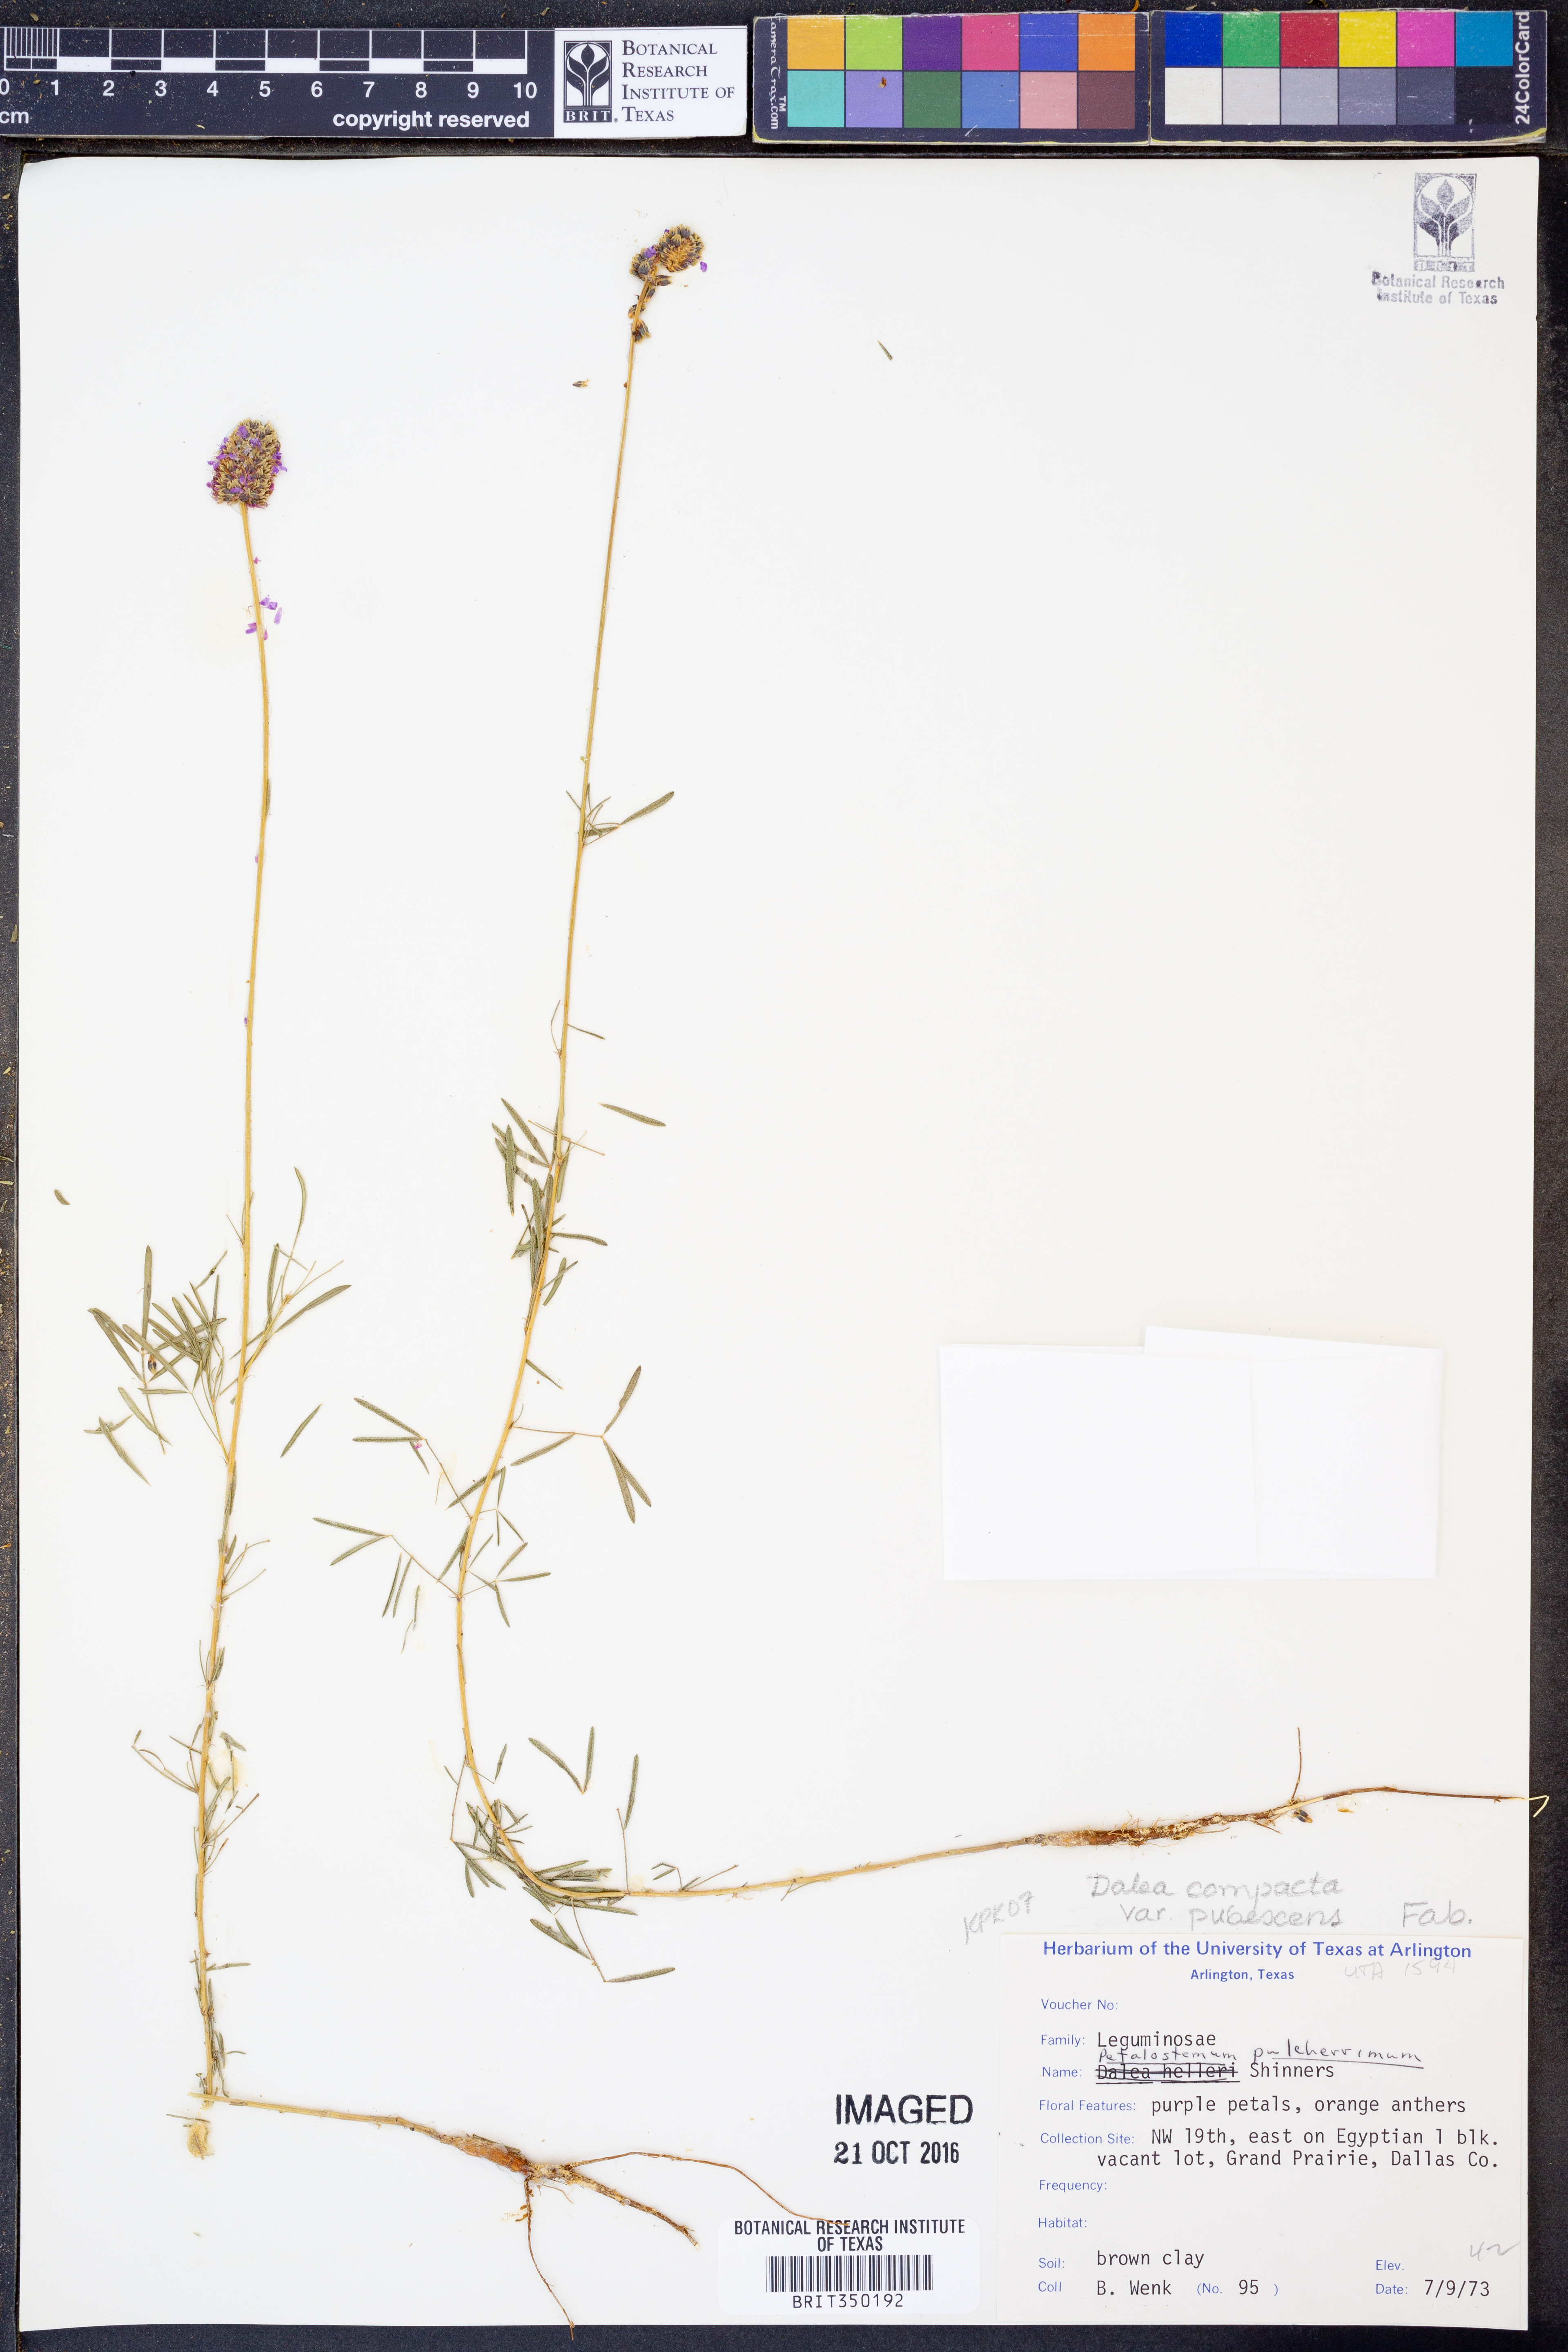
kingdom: Plantae
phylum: Tracheophyta
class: Magnoliopsida
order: Fabales
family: Fabaceae
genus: Dalea
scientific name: Dalea compacta
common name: Compact prairie-clover
